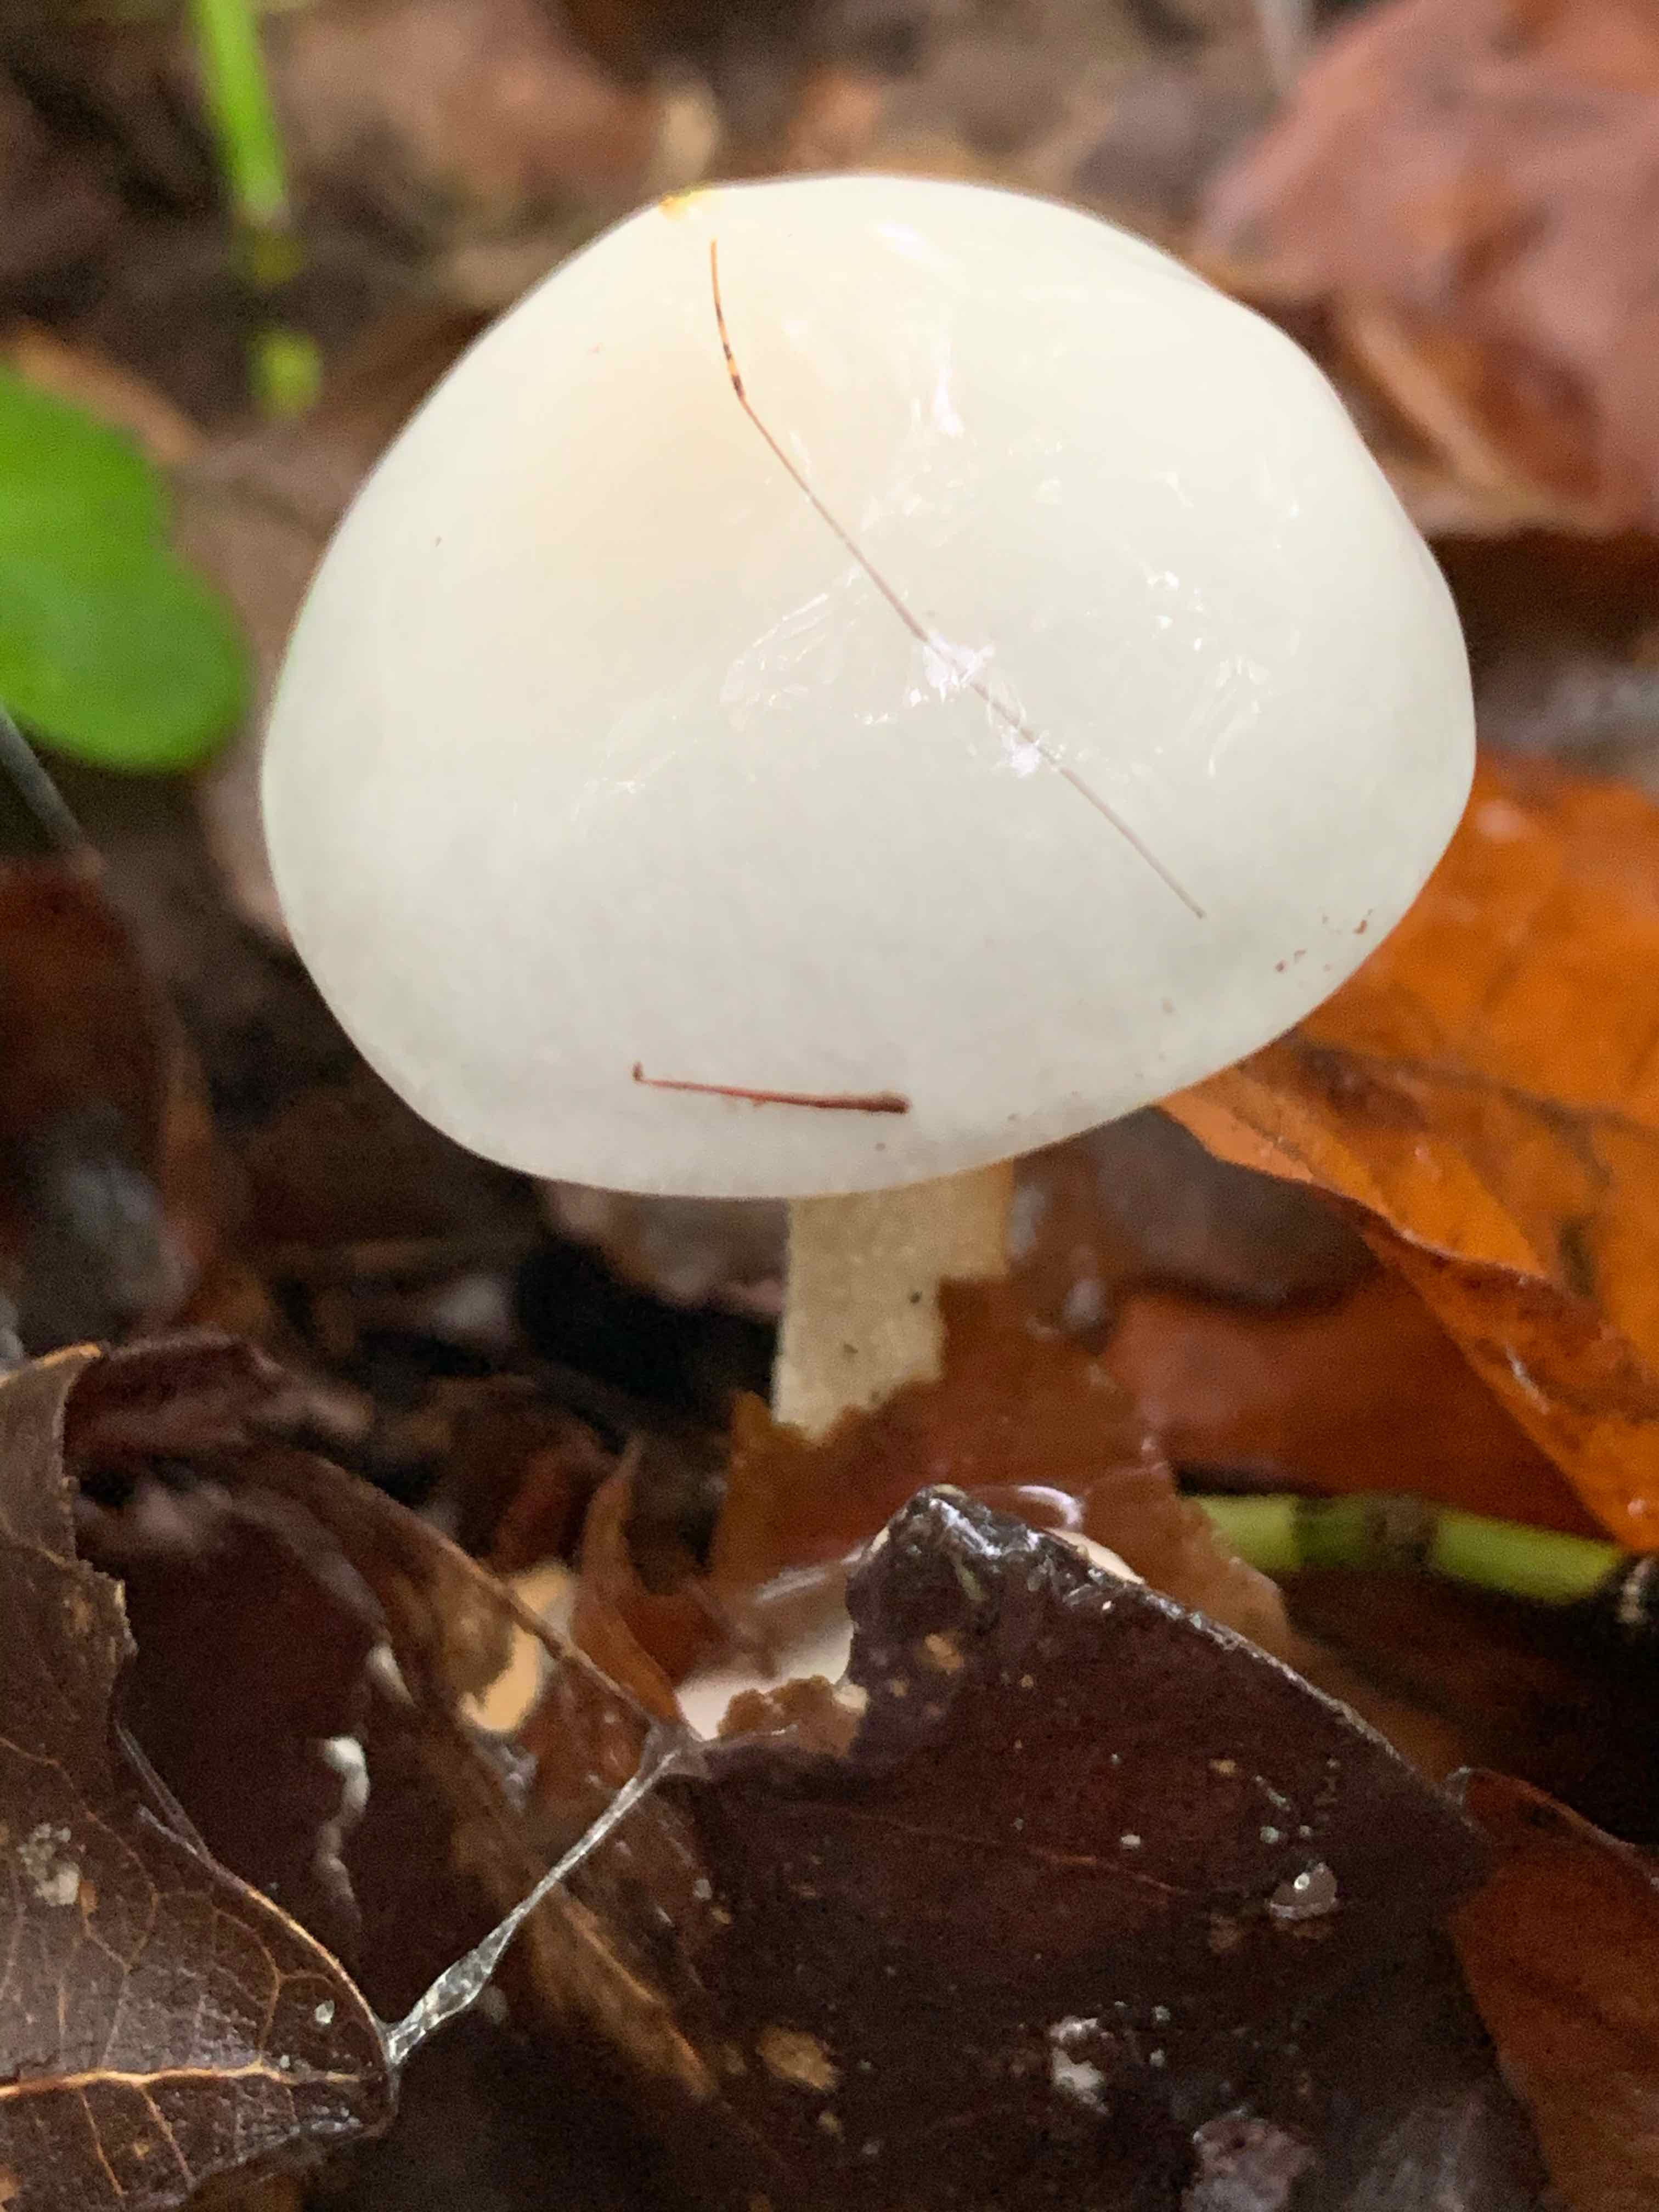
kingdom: Fungi
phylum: Basidiomycota
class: Agaricomycetes
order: Agaricales
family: Physalacriaceae
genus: Mucidula
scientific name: Mucidula mucida
